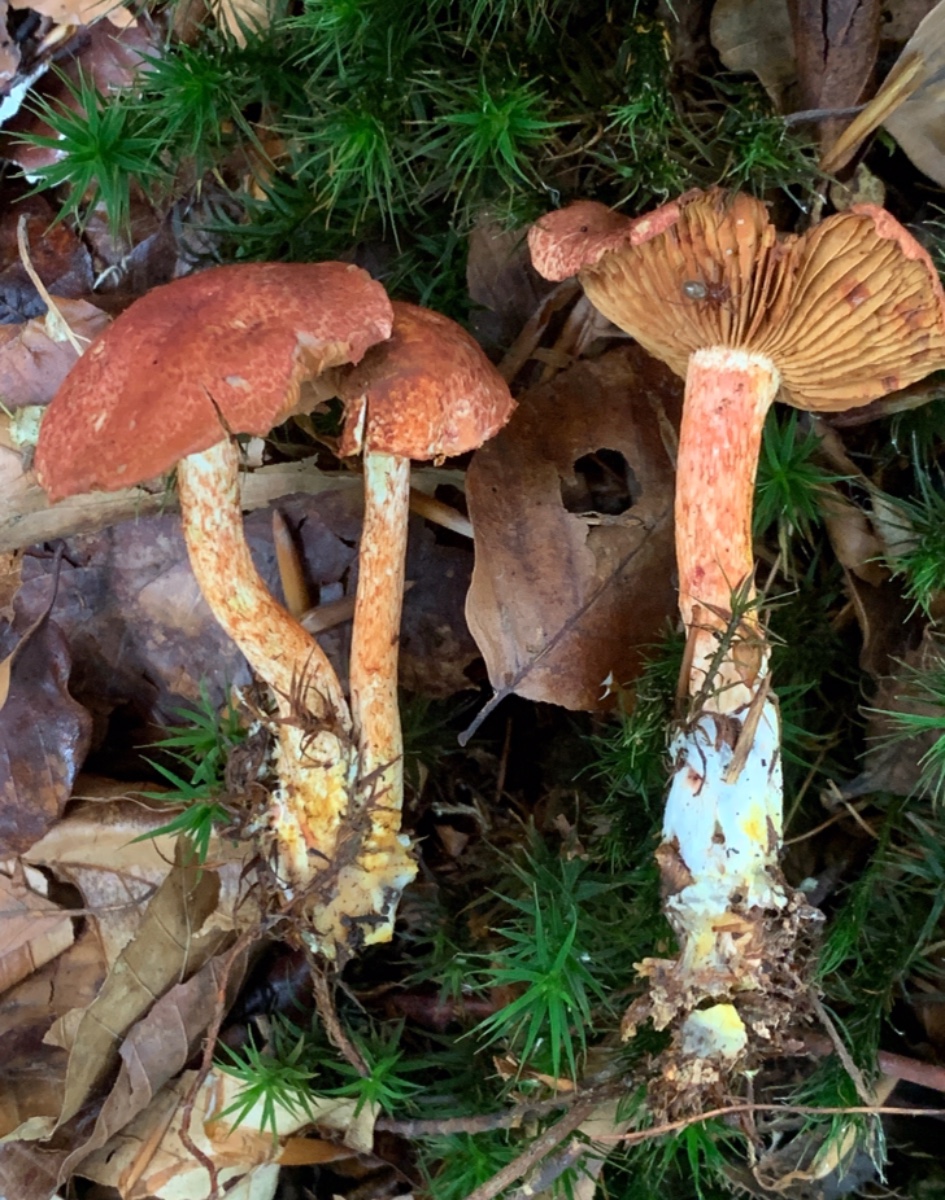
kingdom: Fungi
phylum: Basidiomycota
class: Agaricomycetes
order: Agaricales
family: Cortinariaceae
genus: Cortinarius
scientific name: Cortinarius bolaris
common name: cinnoberskællet slørhat
